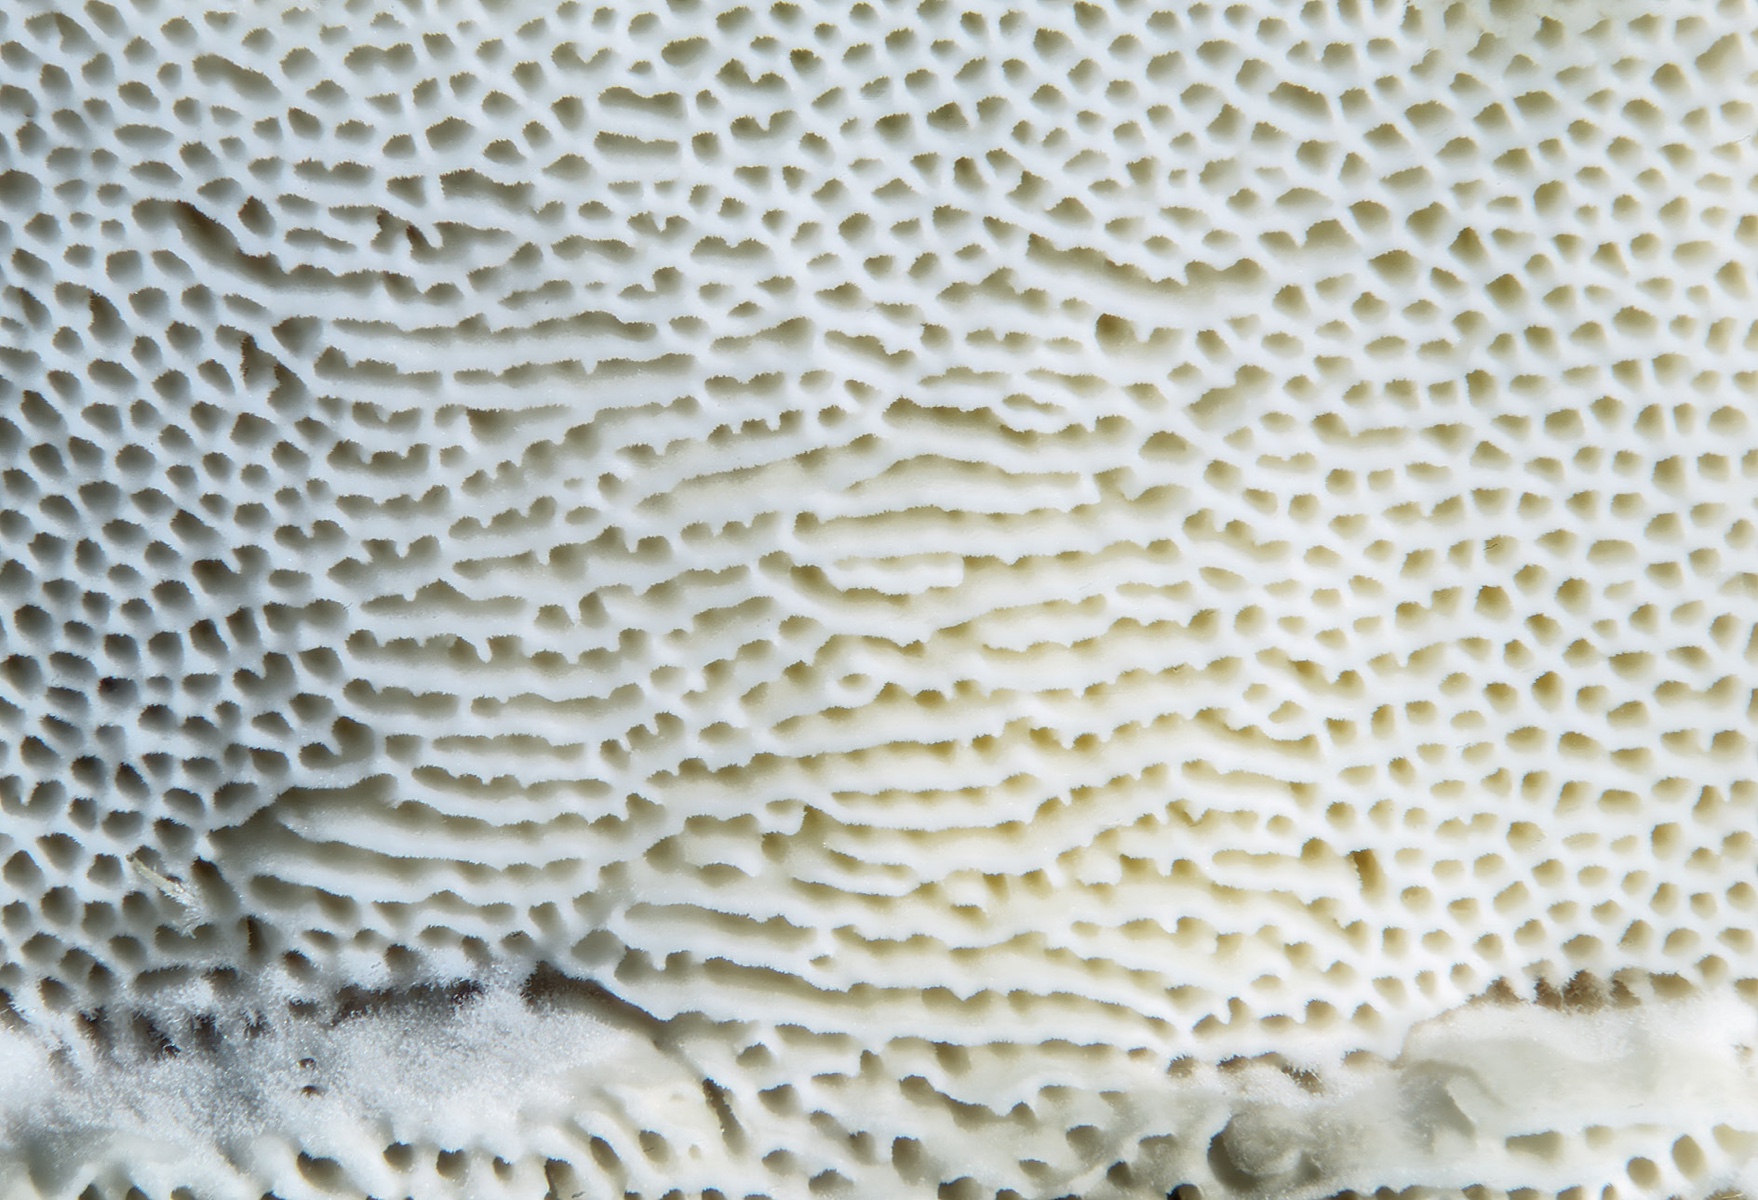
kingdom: Fungi
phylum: Basidiomycota
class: Agaricomycetes
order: Polyporales
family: Incrustoporiaceae
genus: Skeletocutis
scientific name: Skeletocutis nemoralis
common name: stor krystalporesvamp
